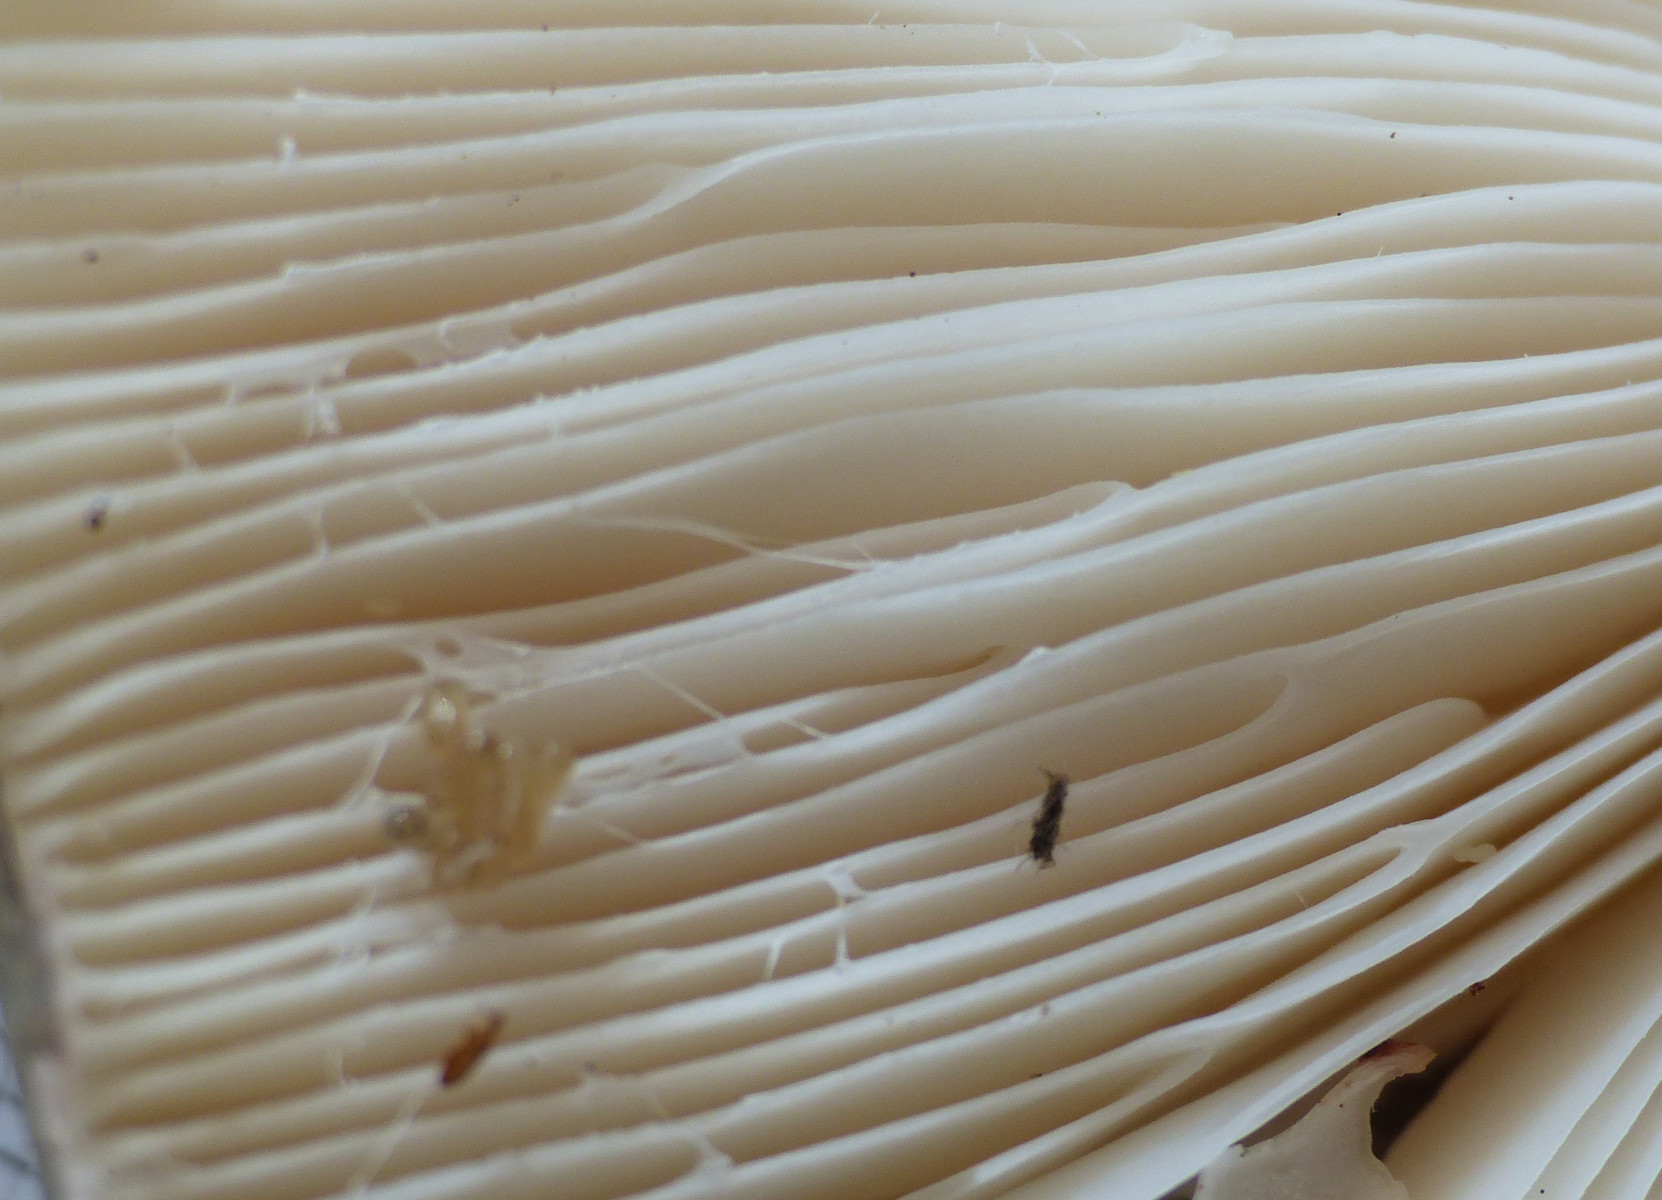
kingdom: Fungi
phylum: Basidiomycota
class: Agaricomycetes
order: Russulales
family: Russulaceae
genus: Russula
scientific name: Russula heterophylla
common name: gaffelbladet skørhat
